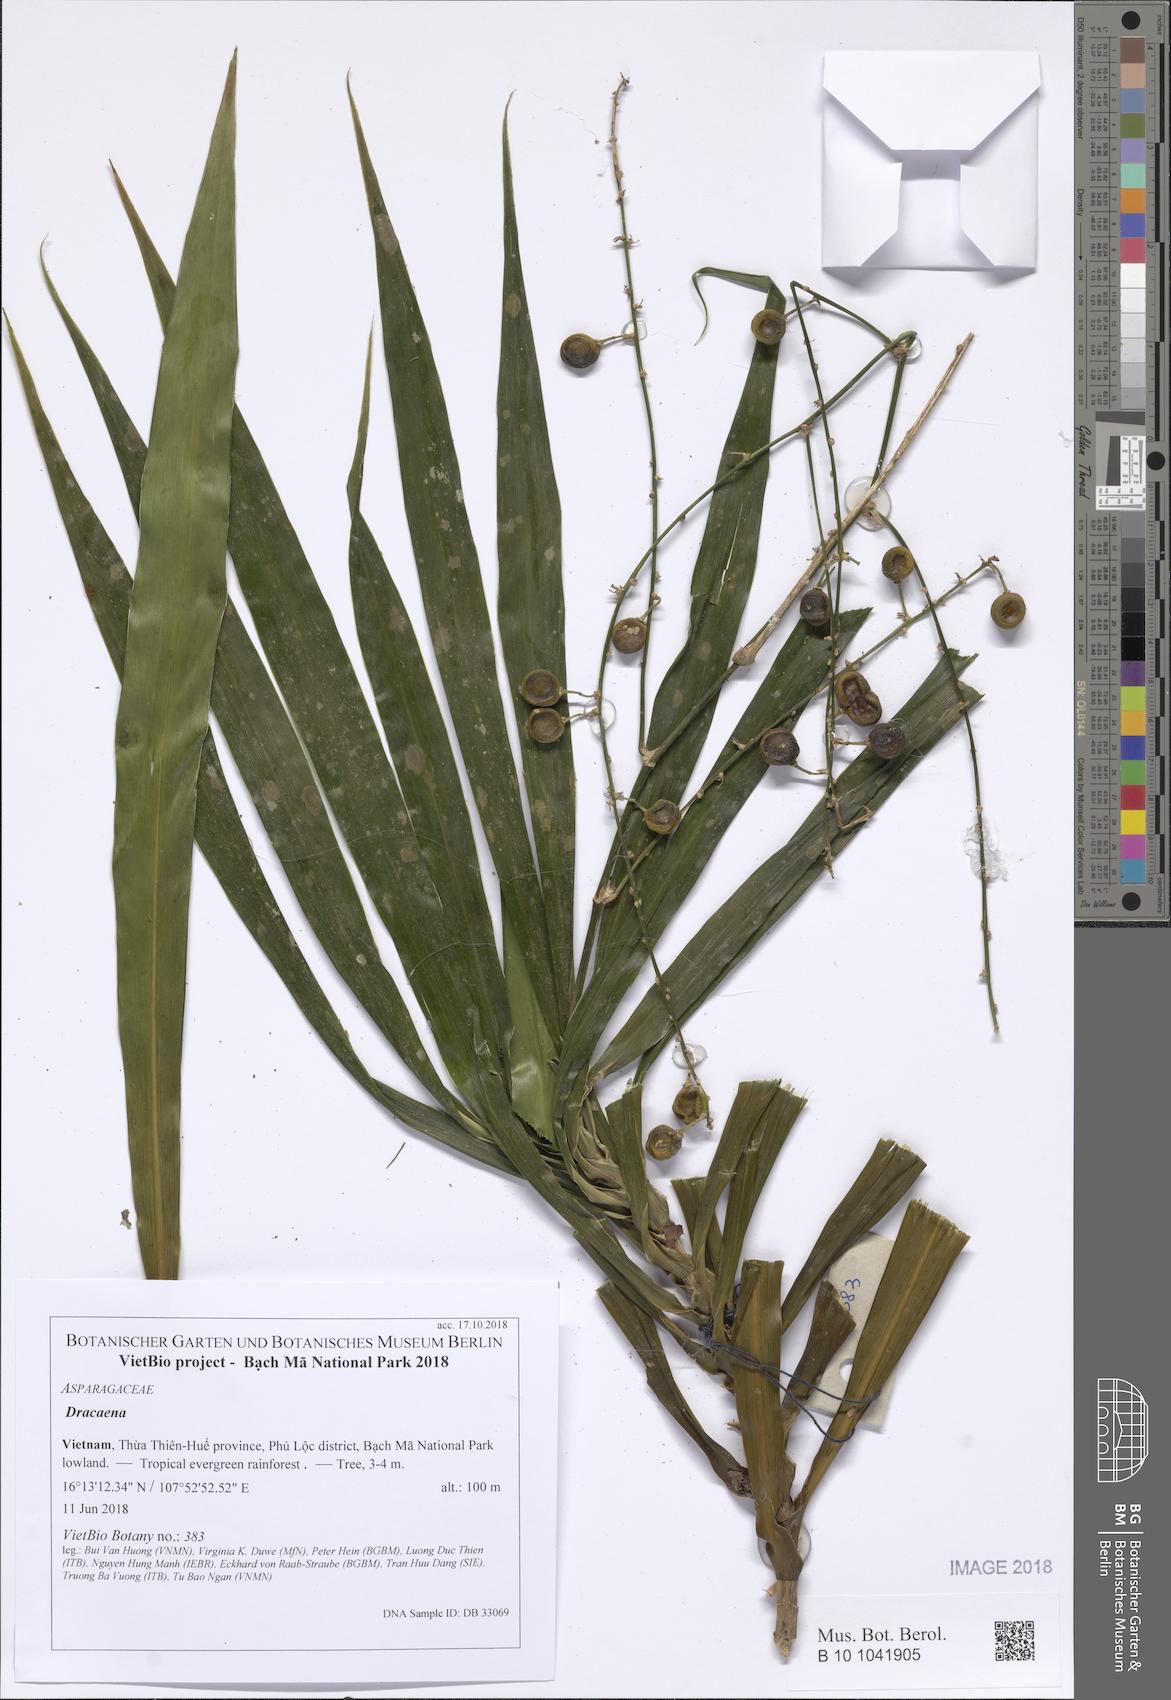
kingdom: Plantae
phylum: Tracheophyta
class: Liliopsida
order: Asparagales
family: Asparagaceae
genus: Dracaena
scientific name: Dracaena
